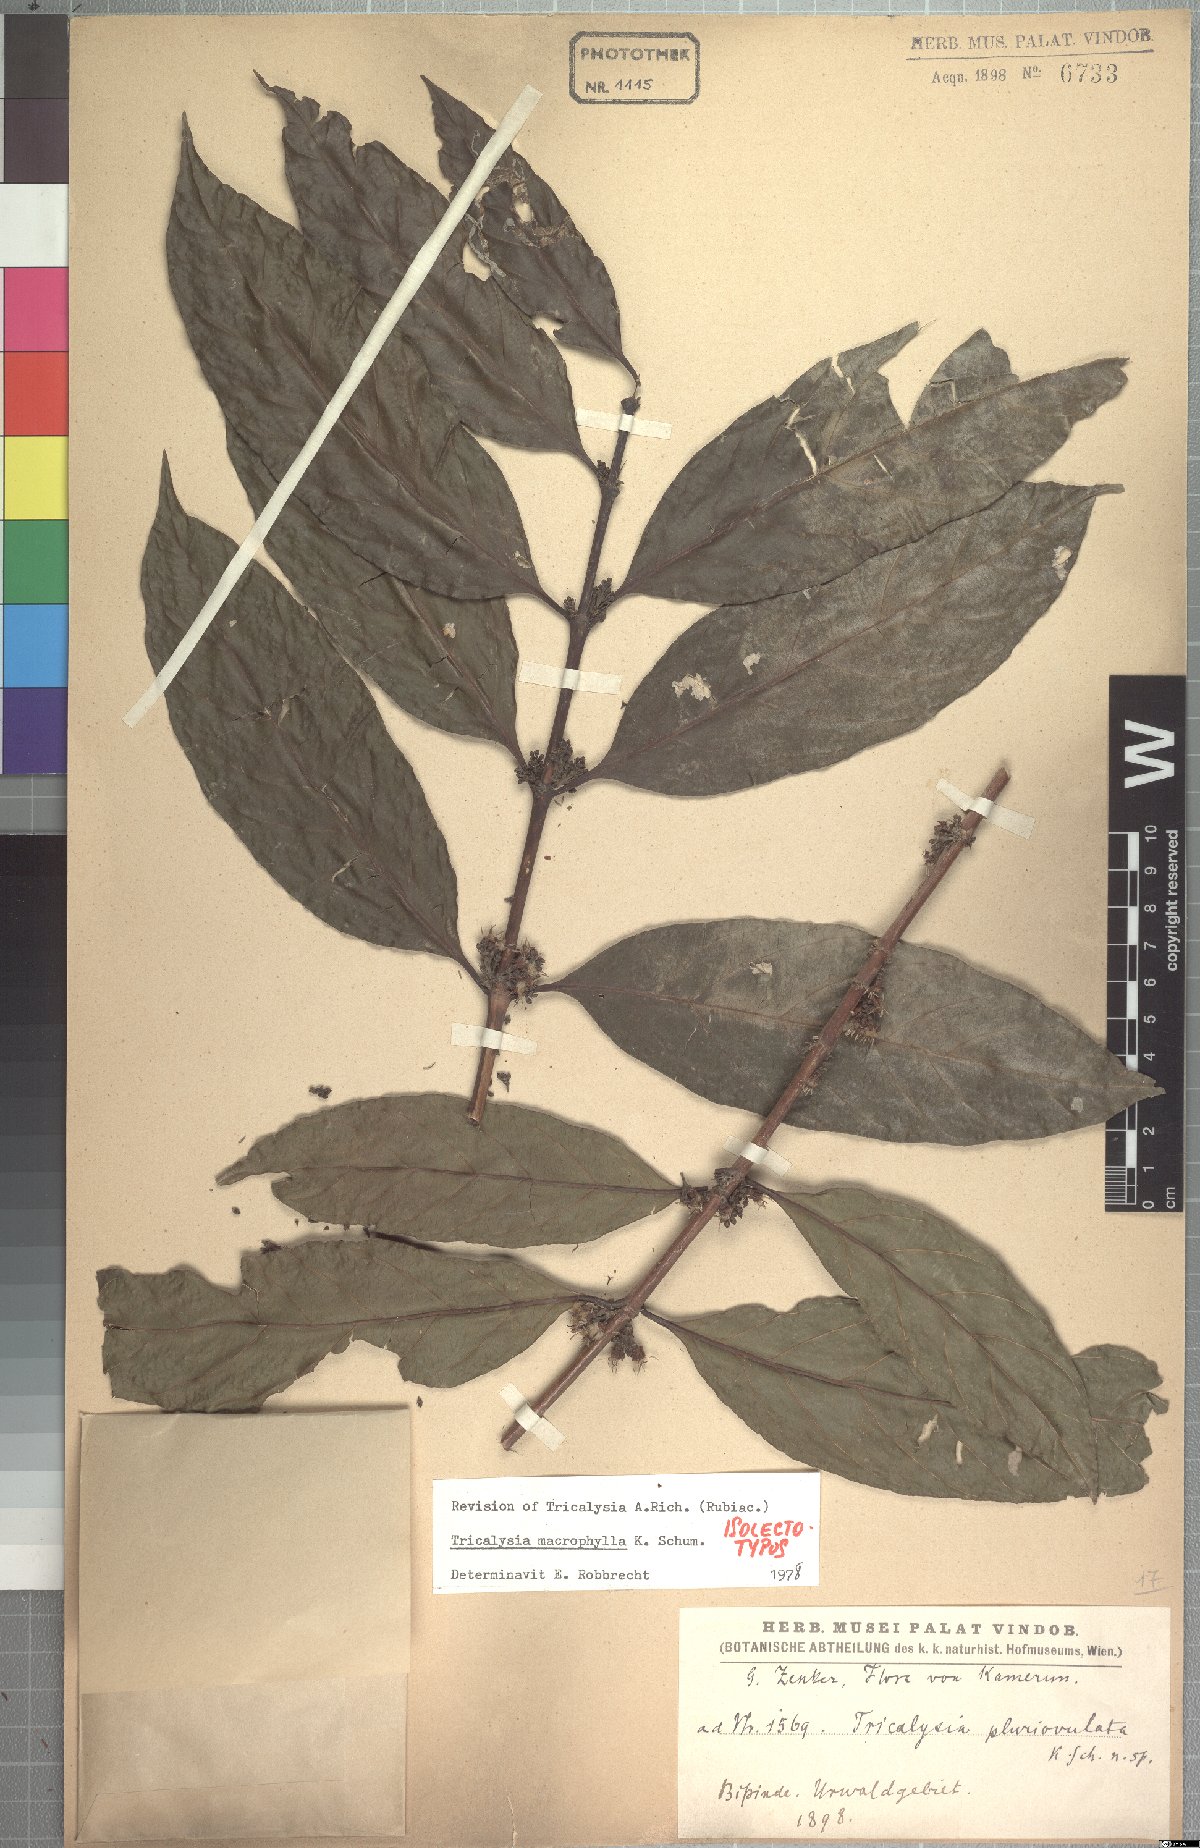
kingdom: Plantae
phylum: Tracheophyta
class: Magnoliopsida
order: Gentianales
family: Rubiaceae
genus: Empogona
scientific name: Empogona macrophylla
